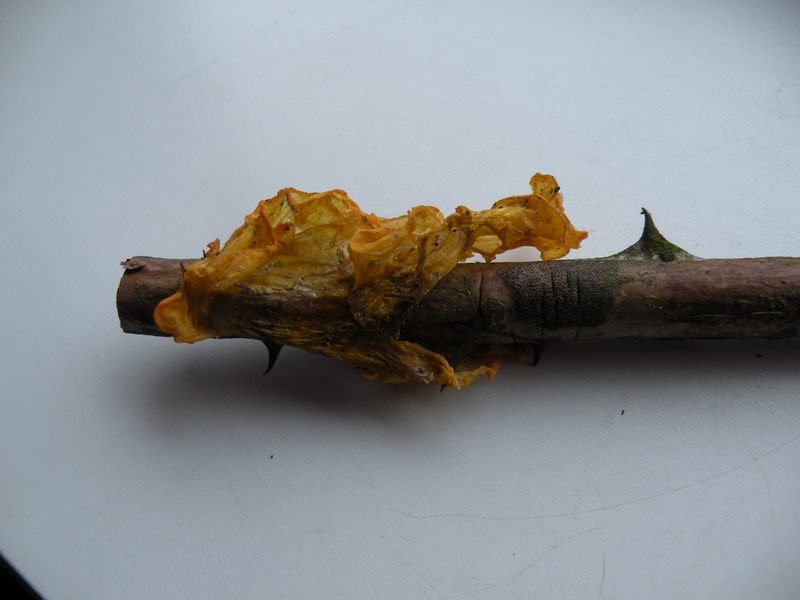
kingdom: Fungi
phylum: Basidiomycota
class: Tremellomycetes
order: Tremellales
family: Tremellaceae
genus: Tremella
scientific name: Tremella mesenterica
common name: gul bævresvamp
